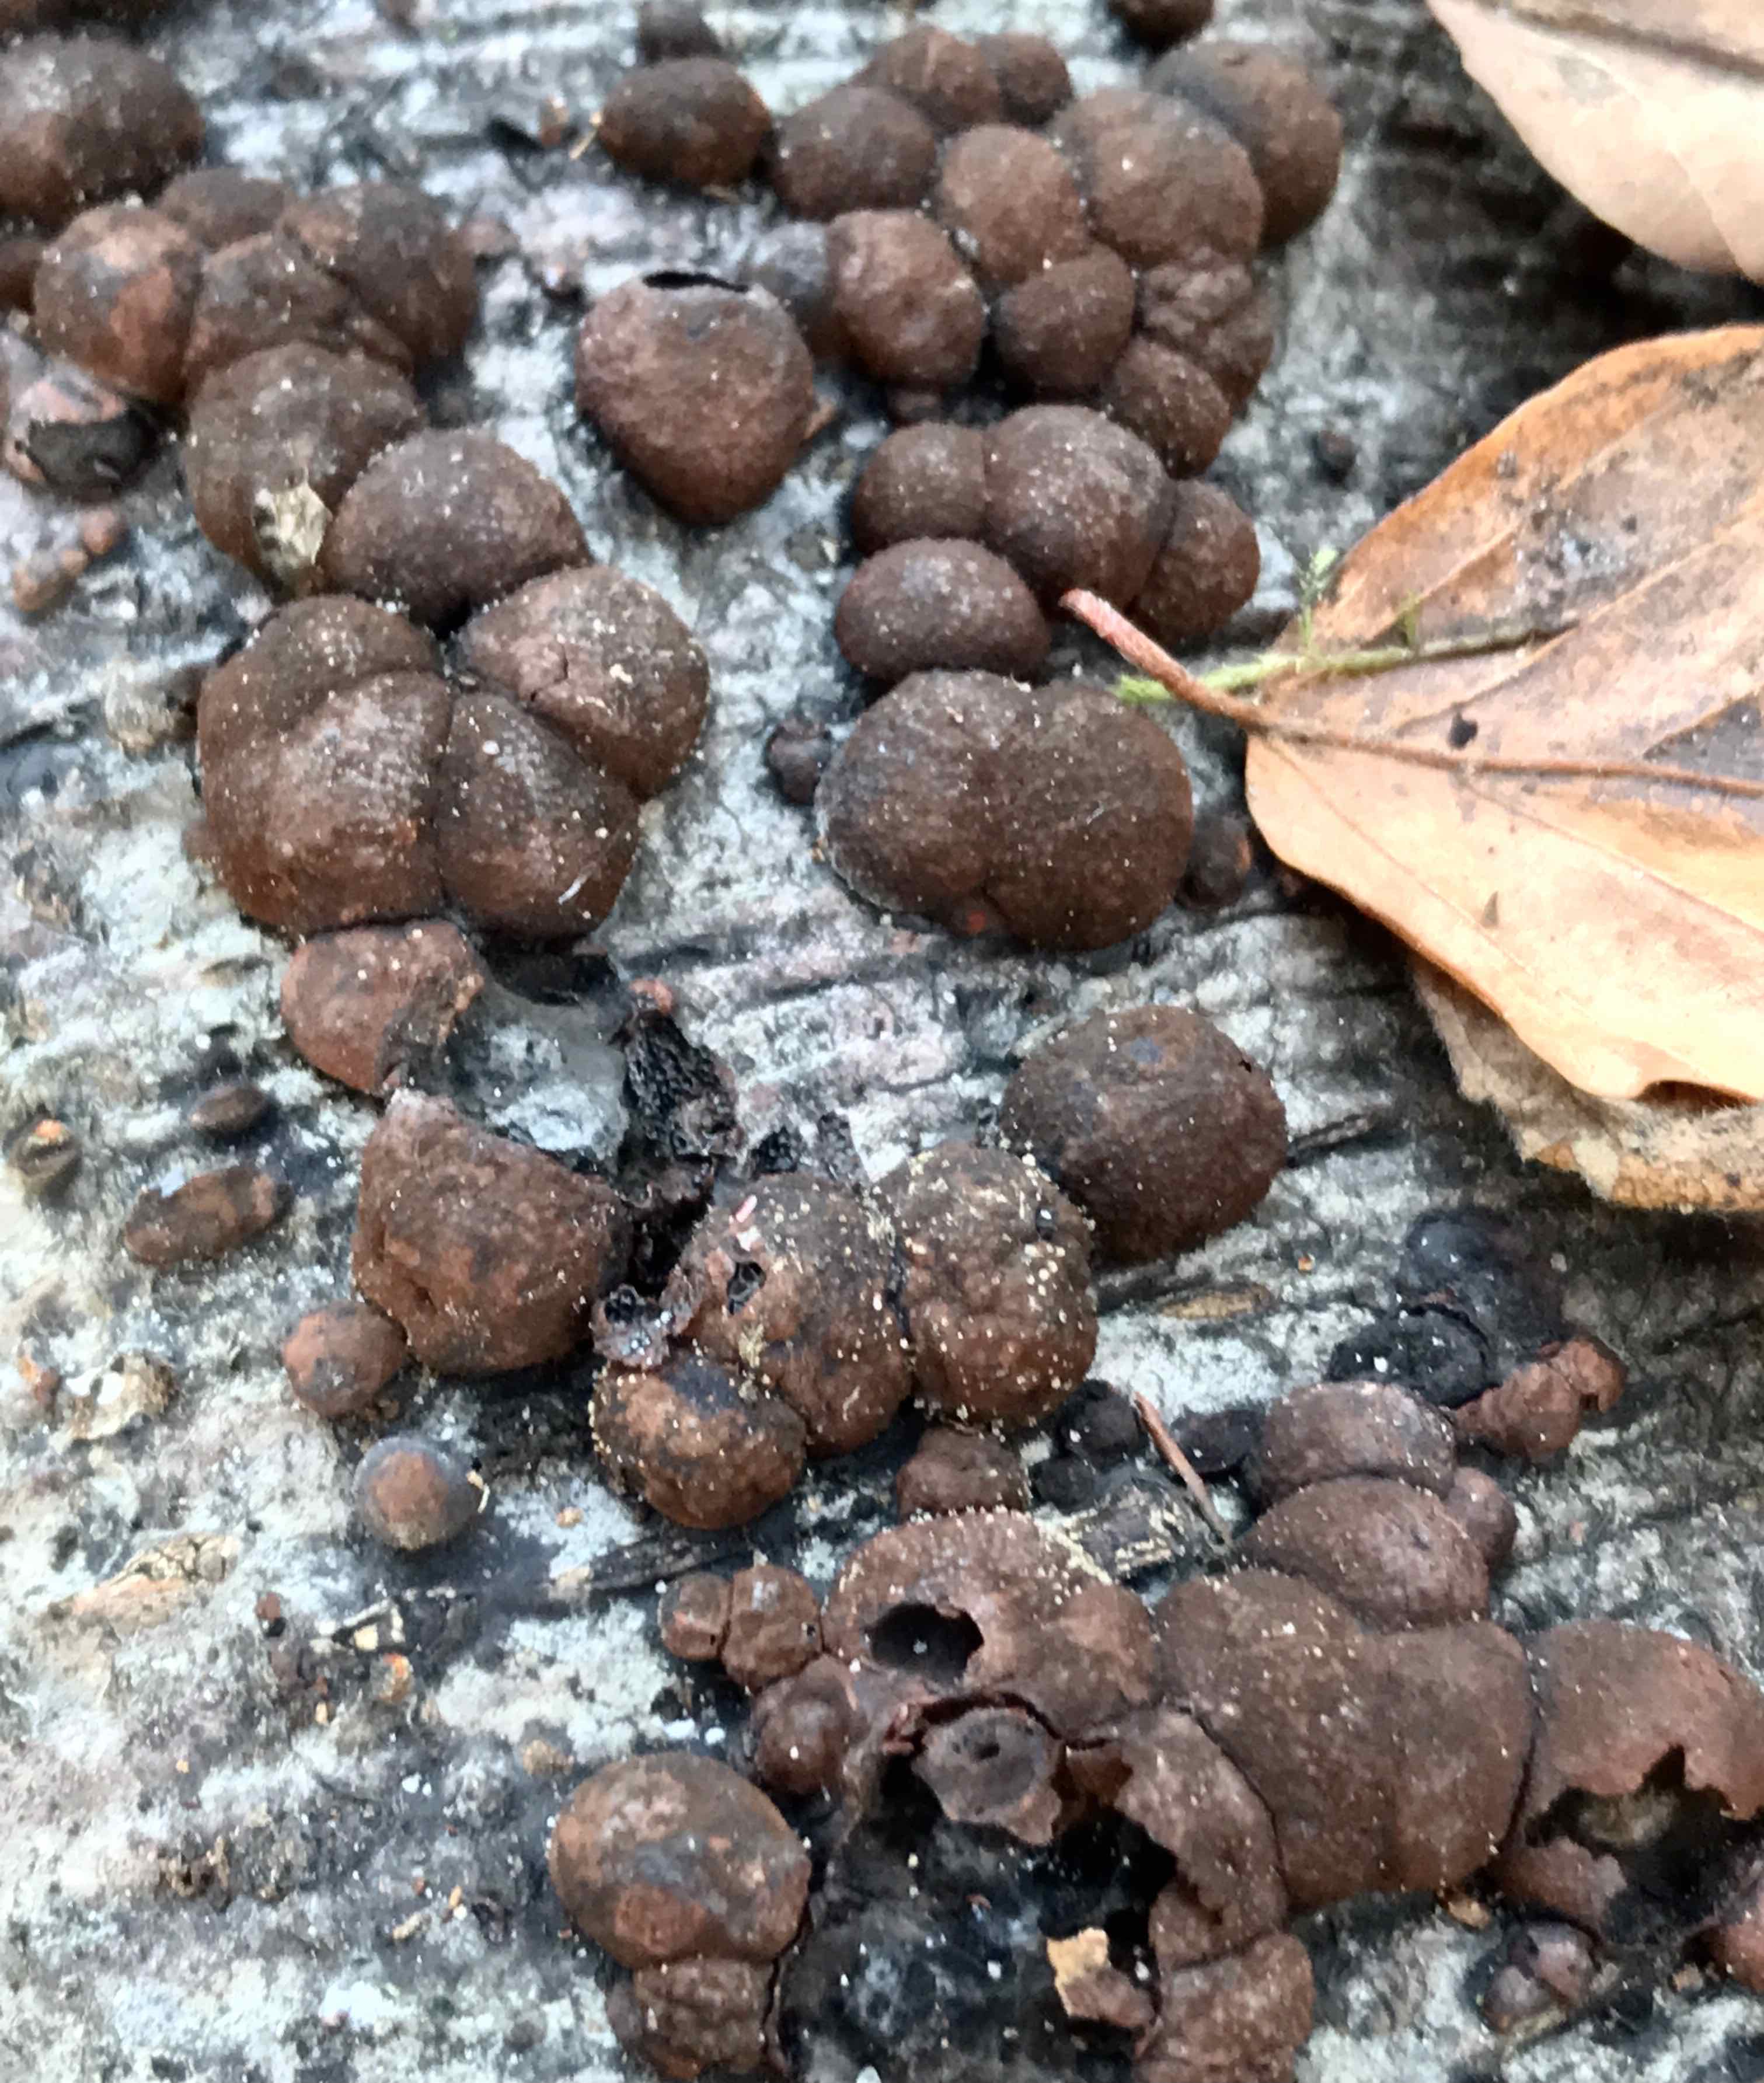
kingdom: Fungi
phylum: Ascomycota
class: Sordariomycetes
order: Xylariales
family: Hypoxylaceae
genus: Hypoxylon
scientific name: Hypoxylon fragiforme
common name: kuljordbær
